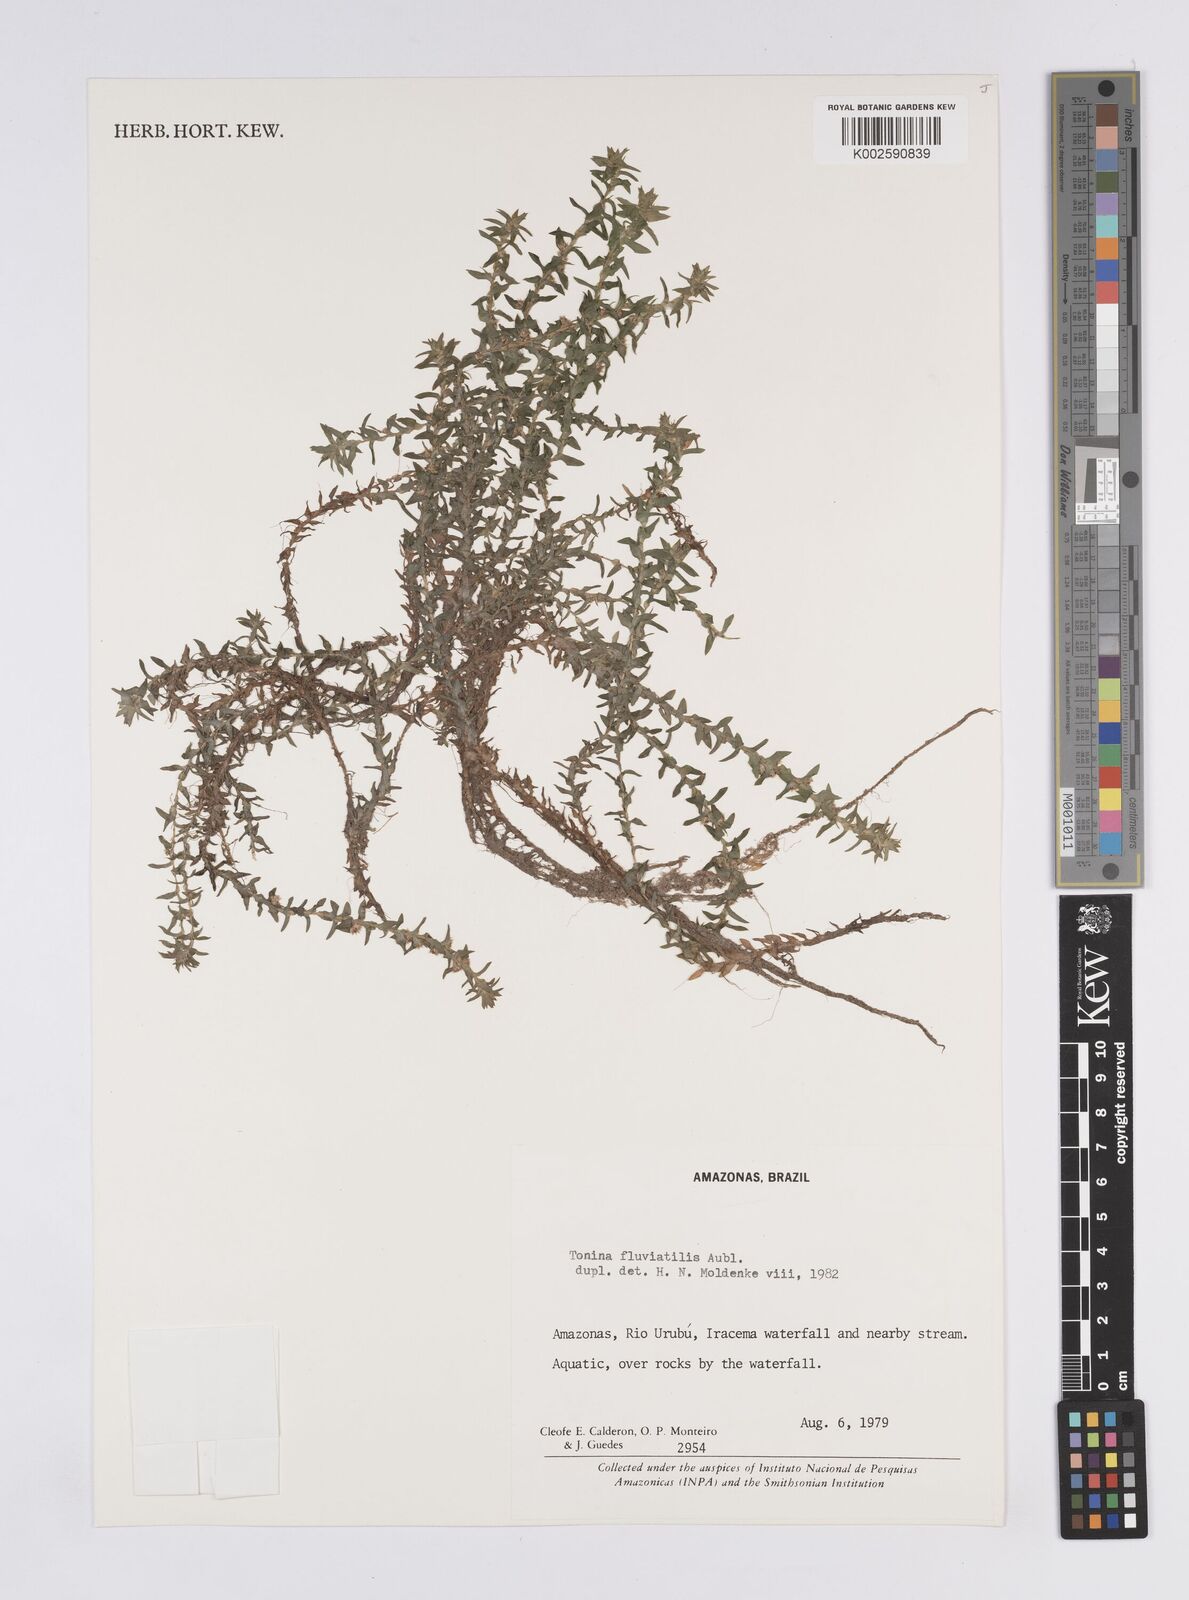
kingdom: Plantae
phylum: Tracheophyta
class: Liliopsida
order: Poales
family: Eriocaulaceae
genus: Paepalanthus
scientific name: Paepalanthus fluviatilis
